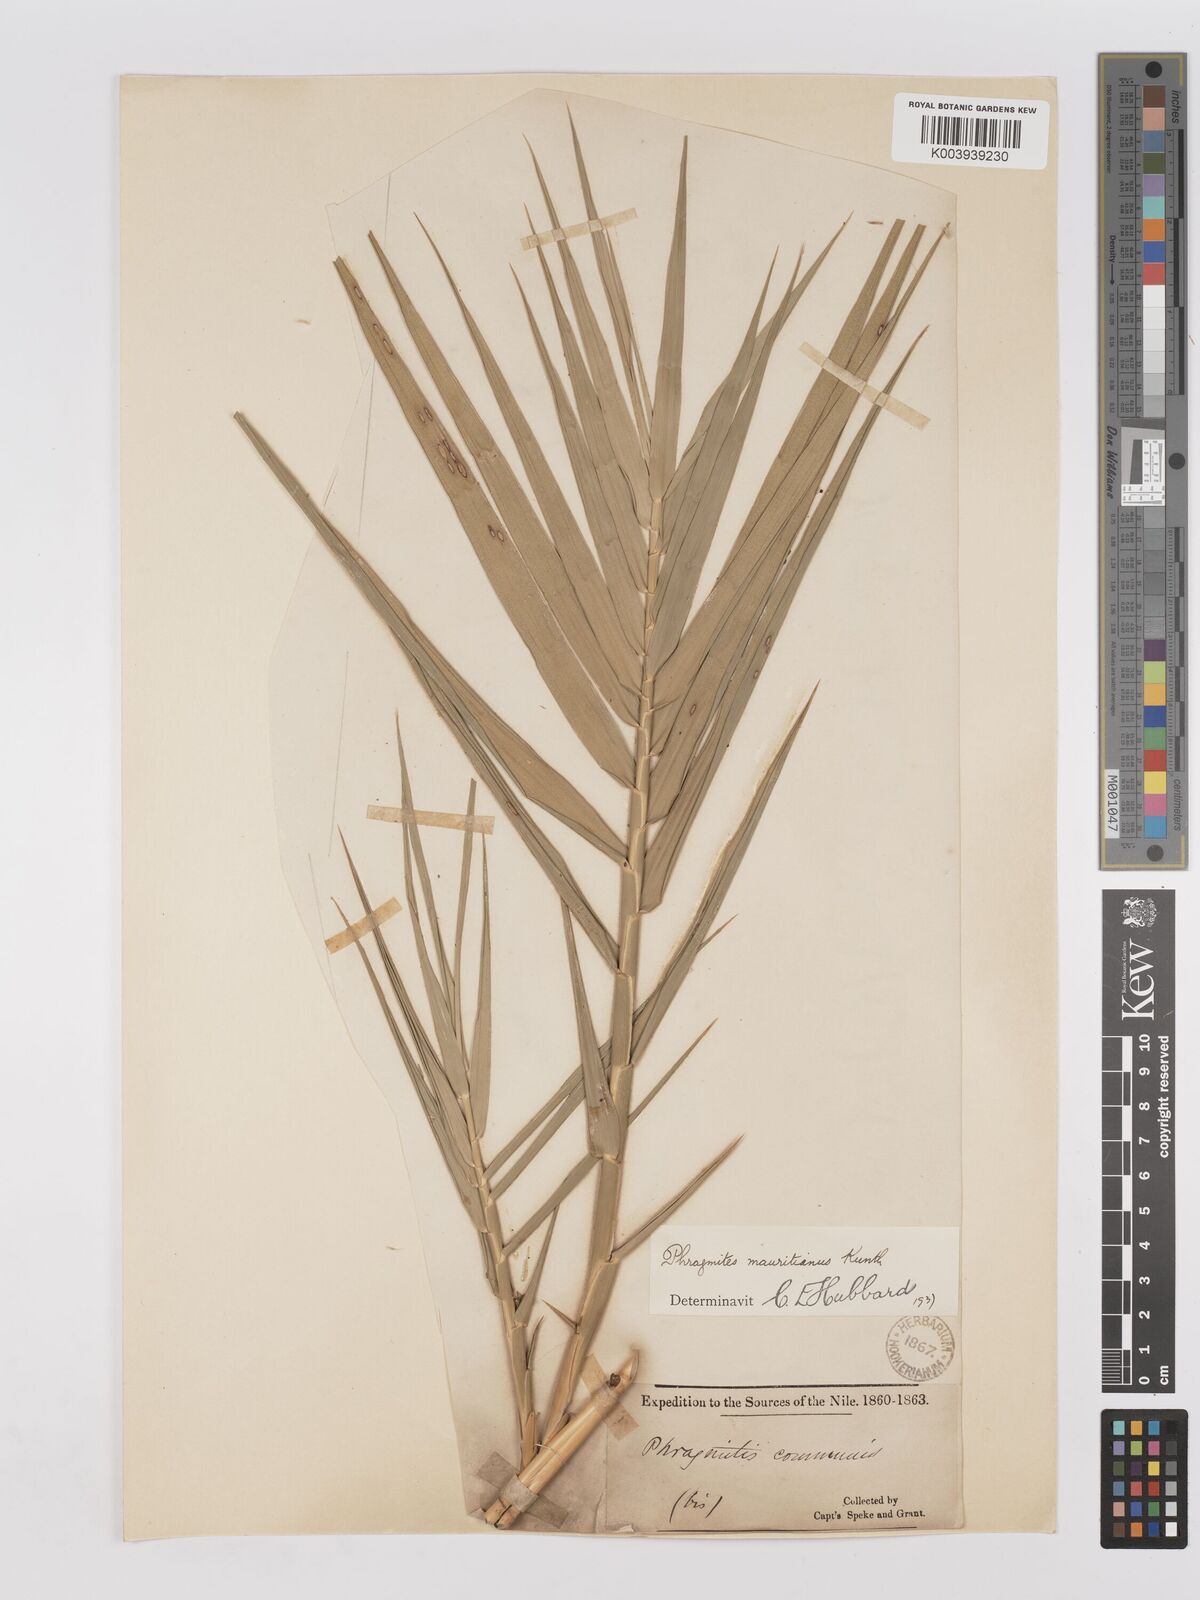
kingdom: Plantae
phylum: Tracheophyta
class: Liliopsida
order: Poales
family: Poaceae
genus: Phragmites
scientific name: Phragmites mauritianus
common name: Reed grass
